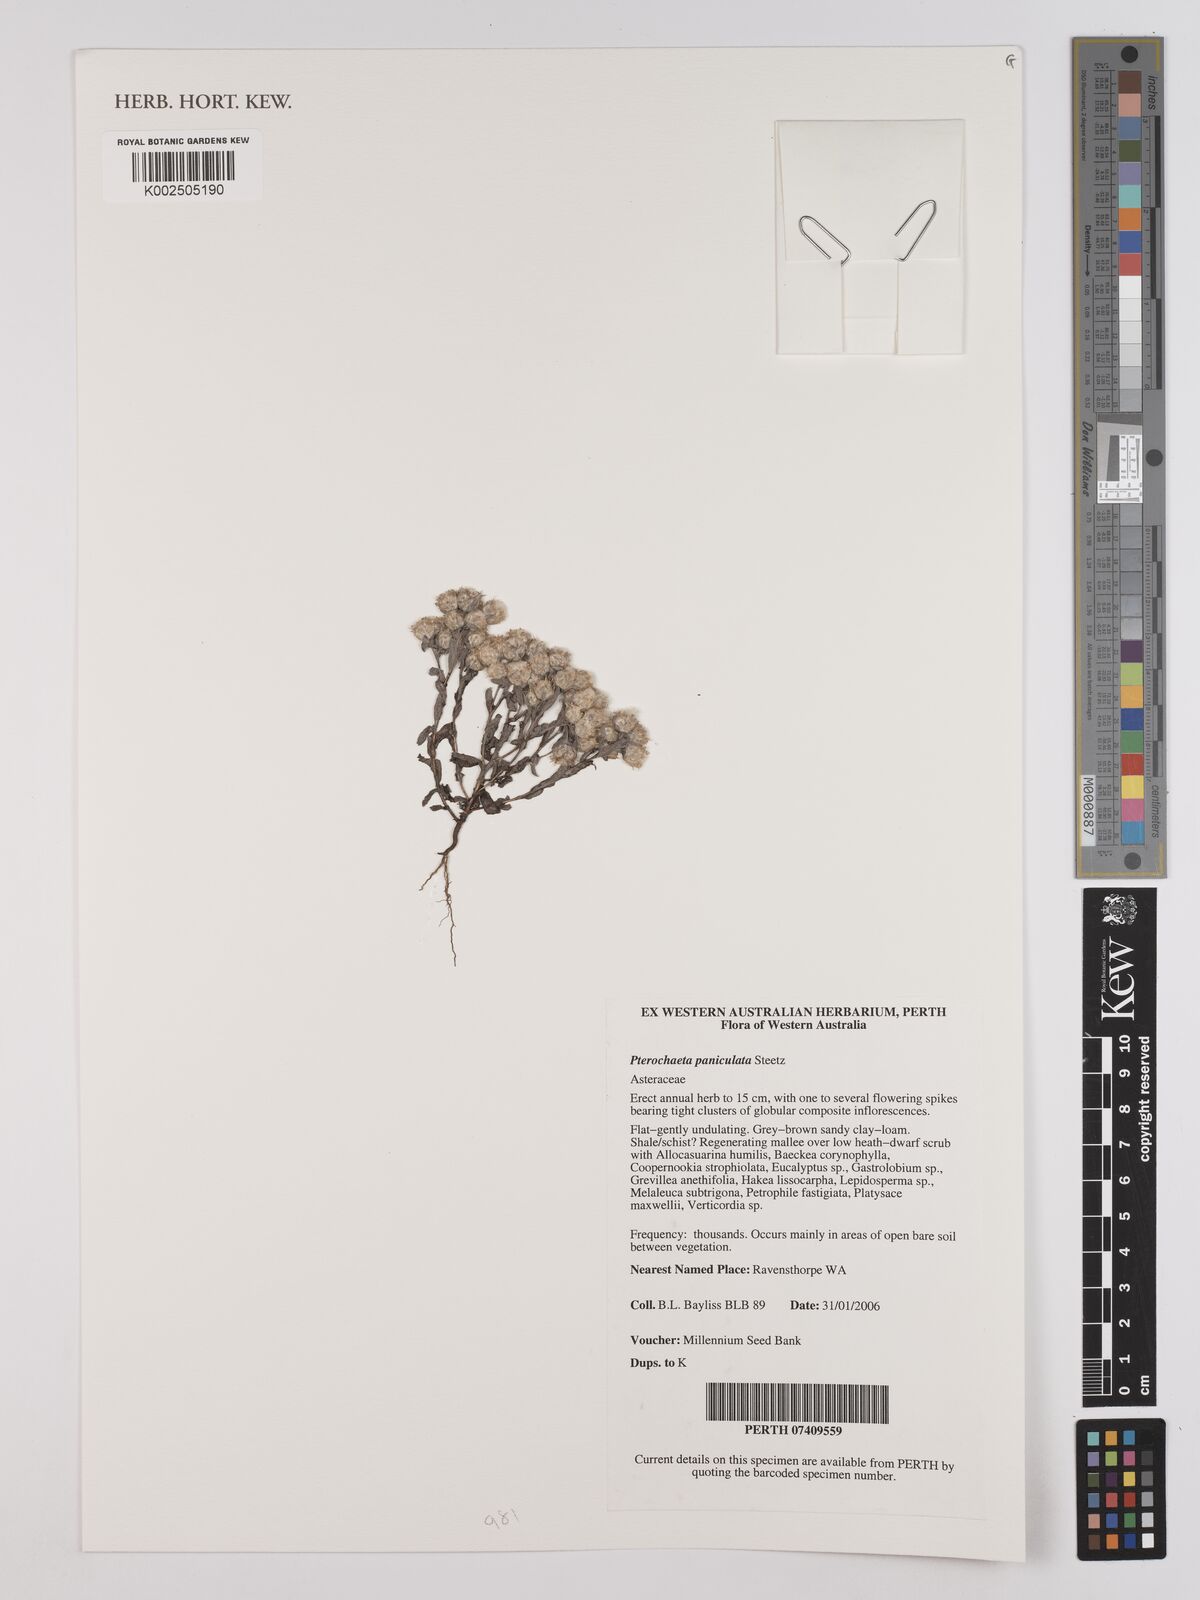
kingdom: Plantae
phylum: Tracheophyta
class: Magnoliopsida
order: Asterales
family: Asteraceae
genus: Pterochaeta
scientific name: Pterochaeta paniculata
